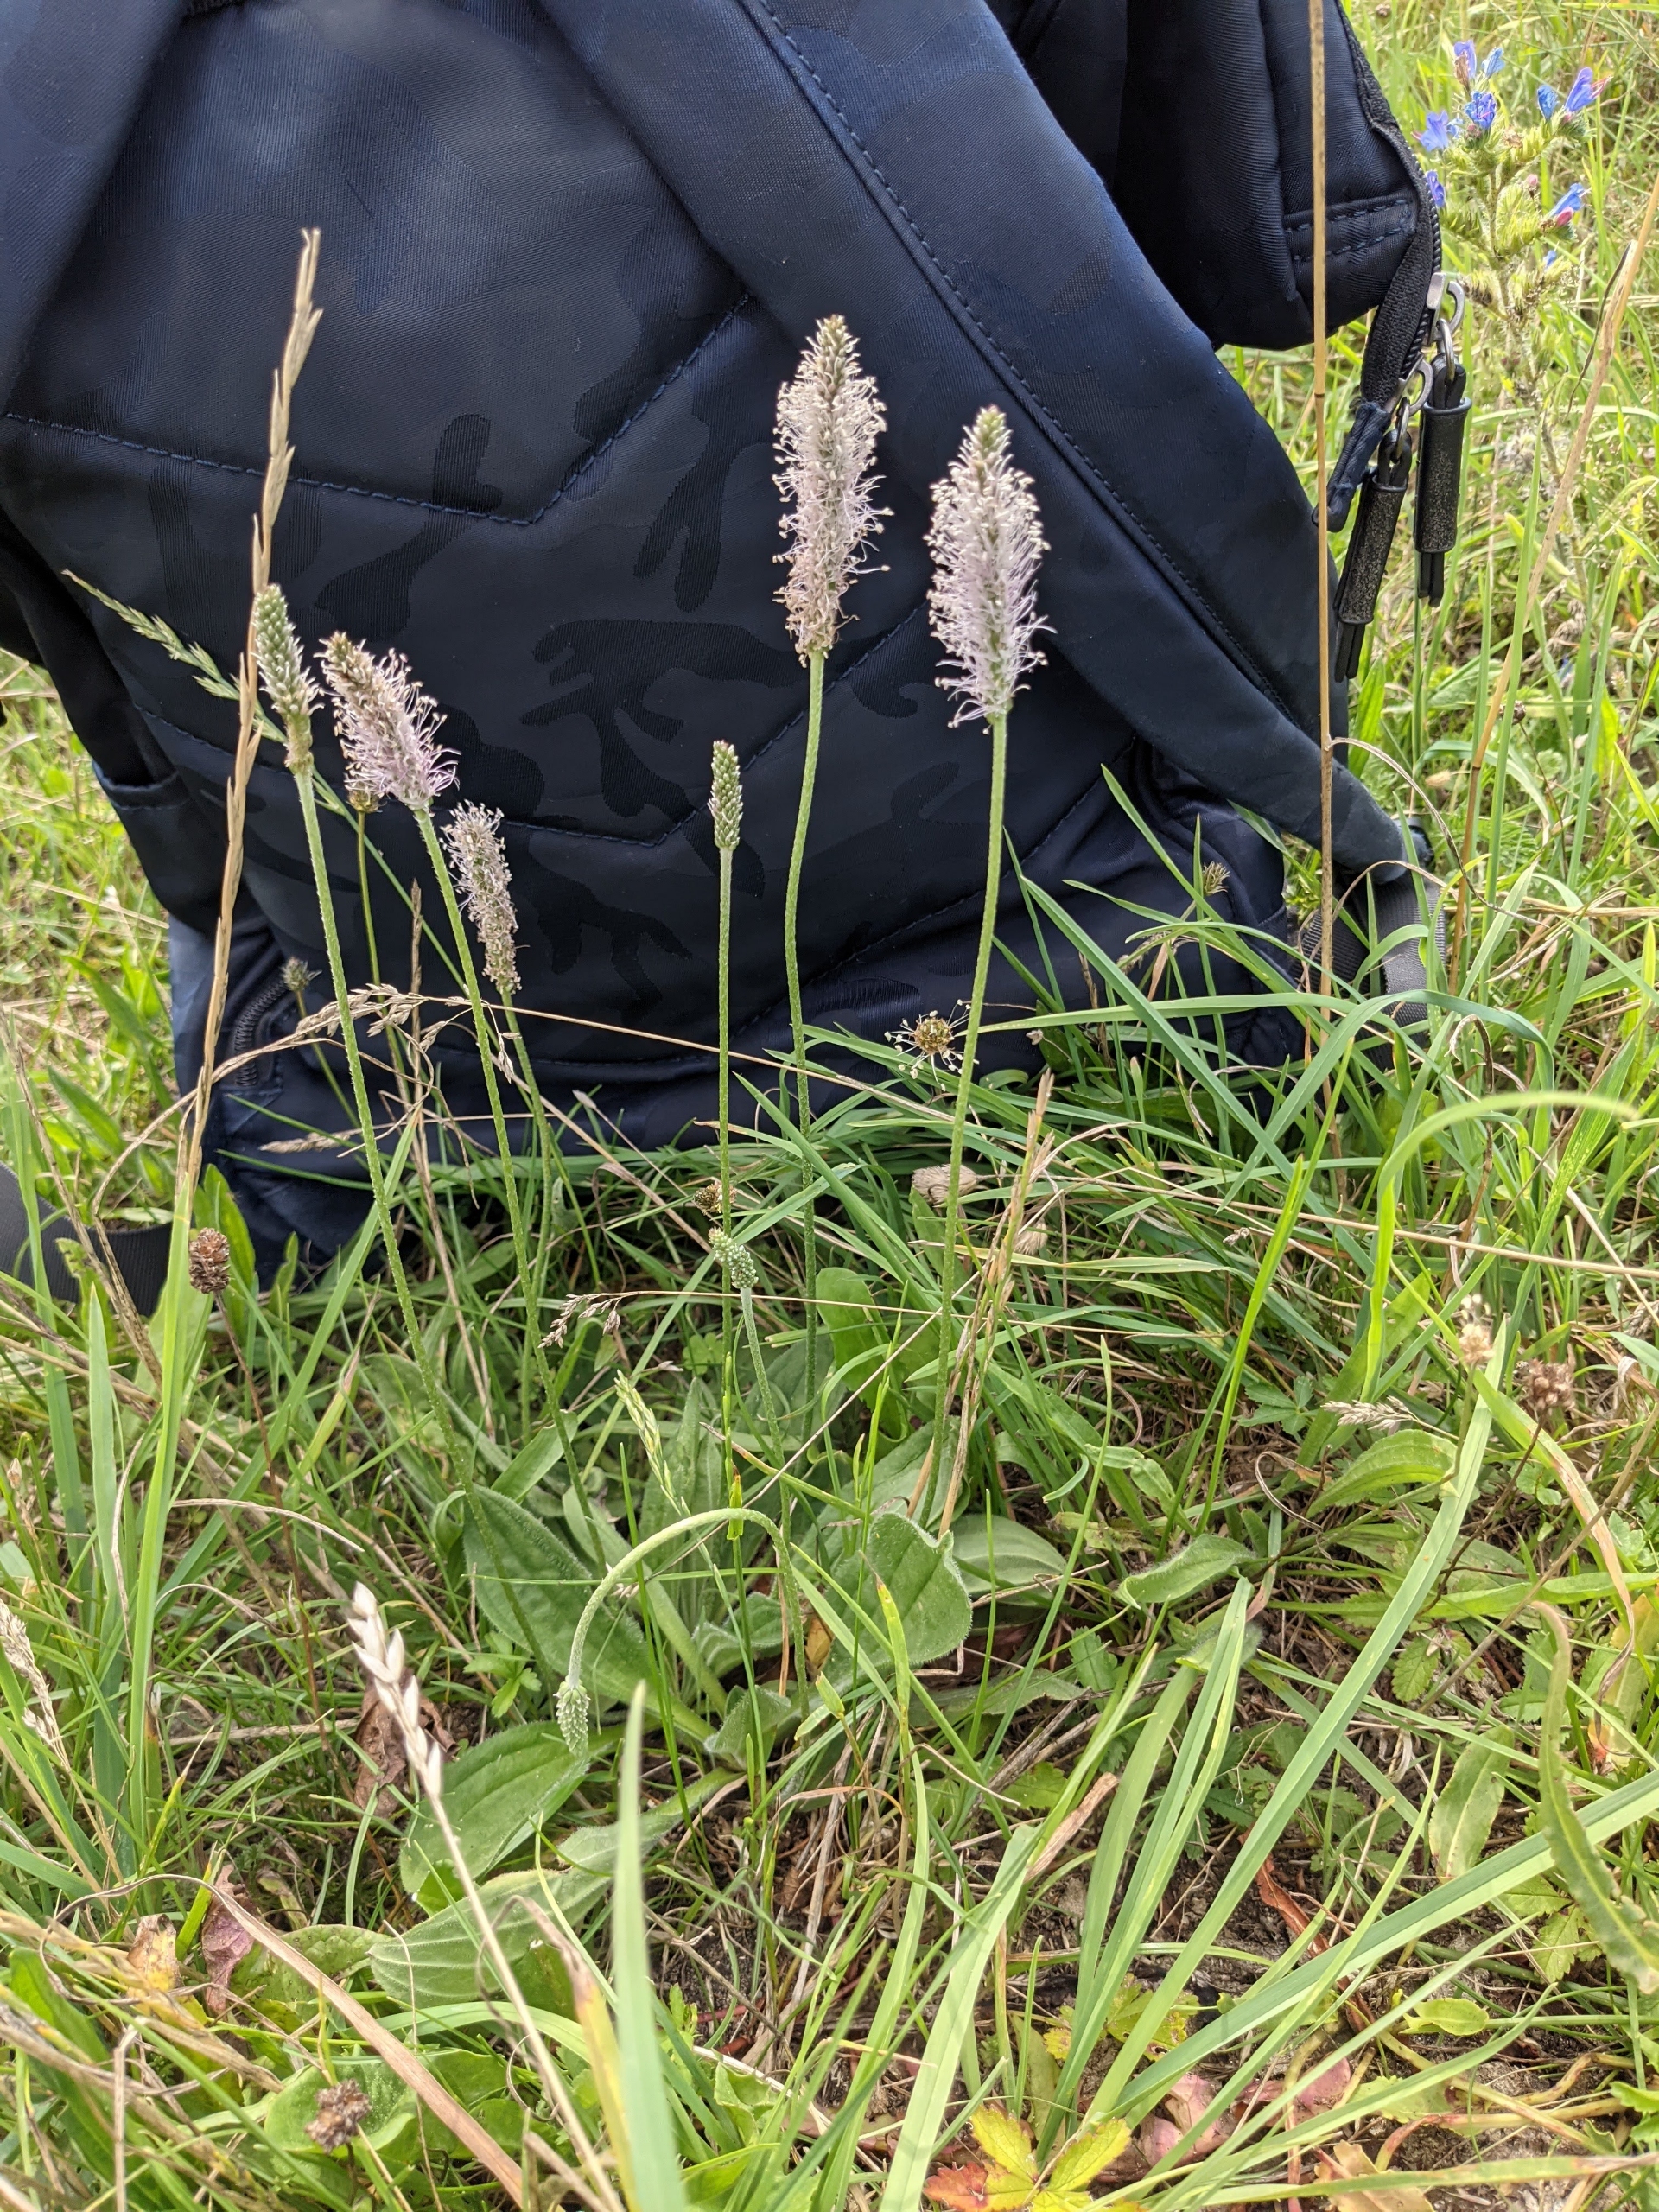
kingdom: Plantae
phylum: Tracheophyta
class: Magnoliopsida
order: Lamiales
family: Plantaginaceae
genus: Plantago
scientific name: Plantago media
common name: Dunet vejbred
